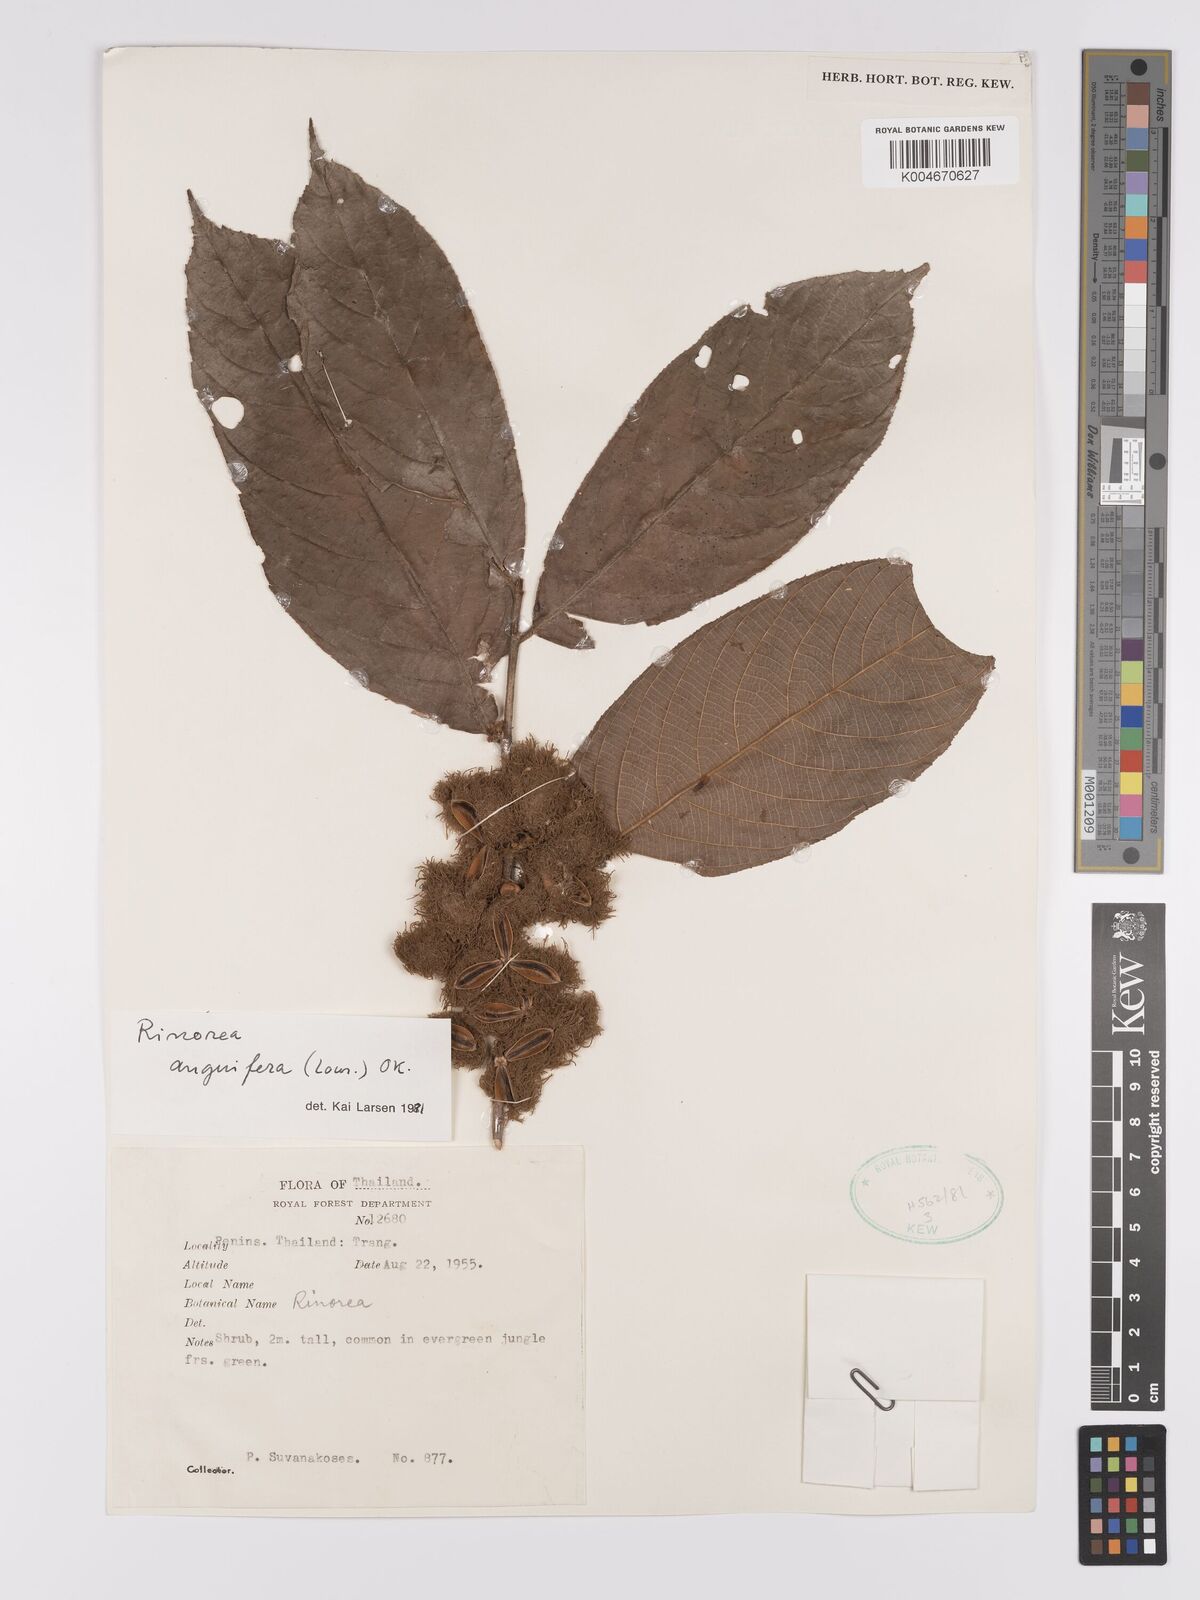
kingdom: Plantae
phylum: Tracheophyta
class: Magnoliopsida
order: Malpighiales
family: Violaceae
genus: Rinorea
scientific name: Rinorea anguifera
